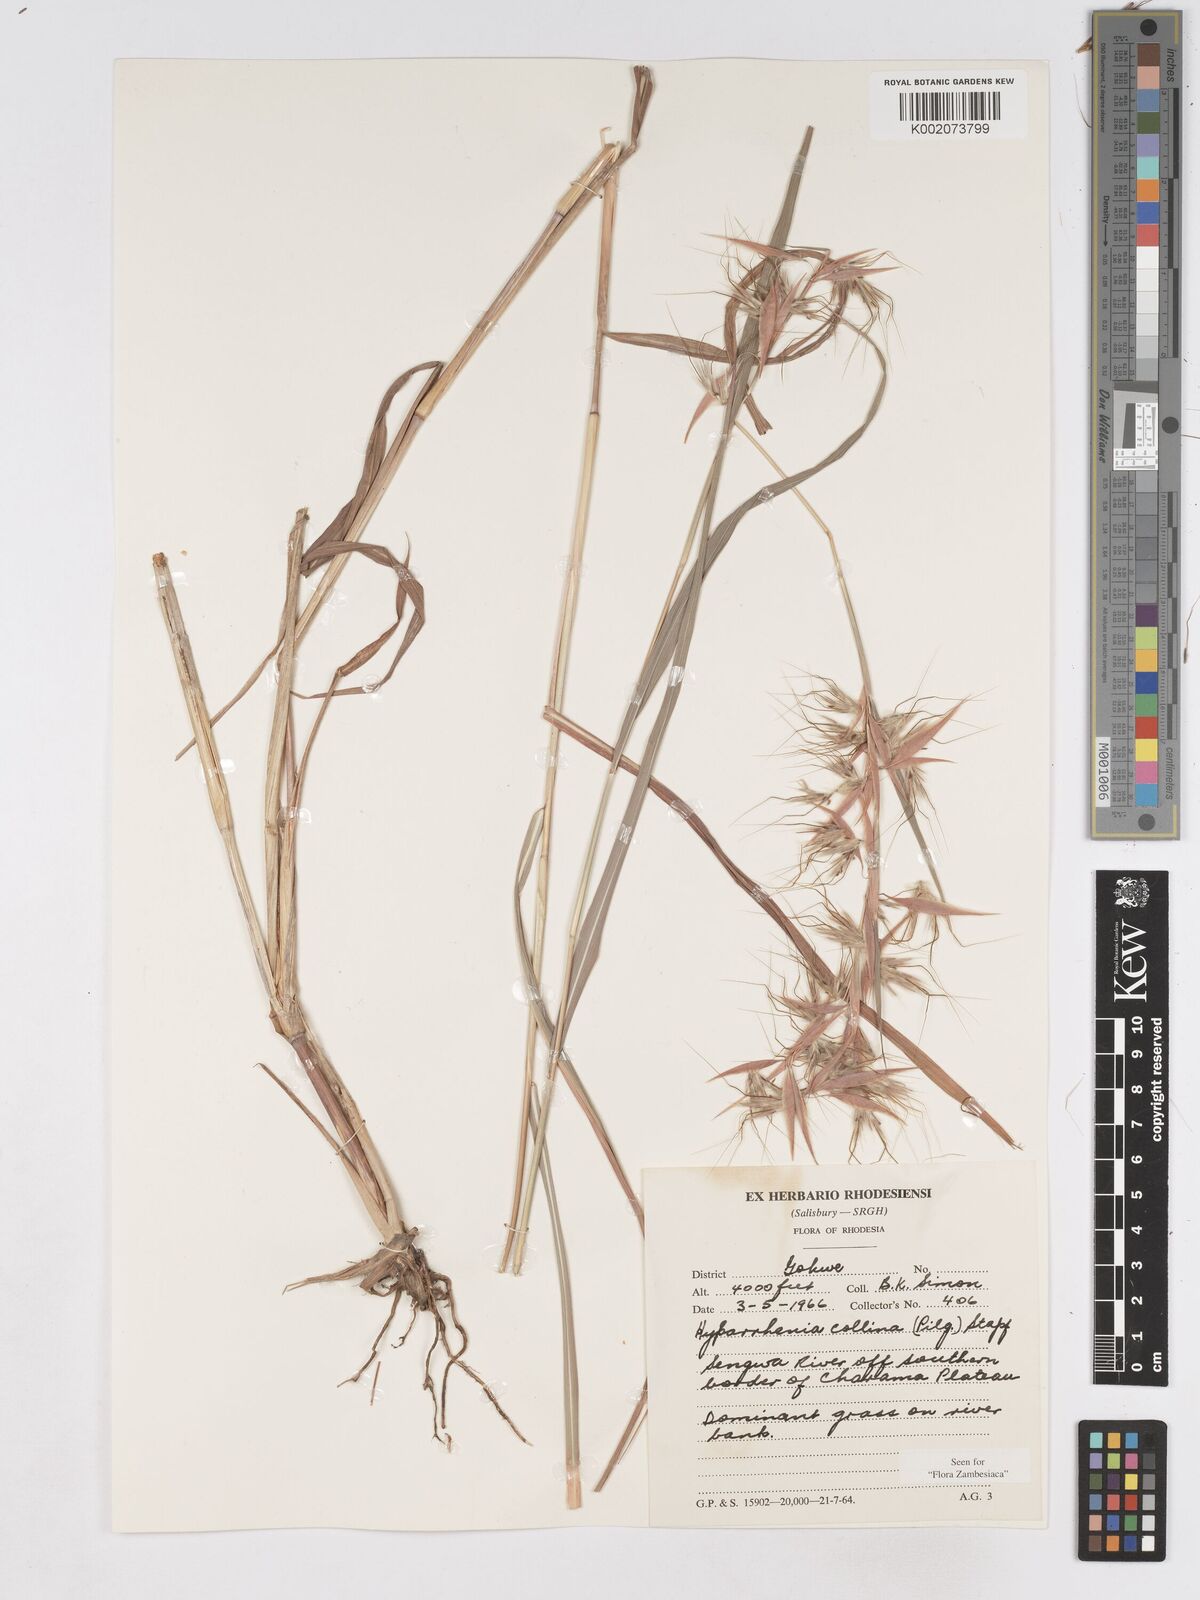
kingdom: Plantae
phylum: Tracheophyta
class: Liliopsida
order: Poales
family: Poaceae
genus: Hyparrhenia
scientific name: Hyparrhenia collina
